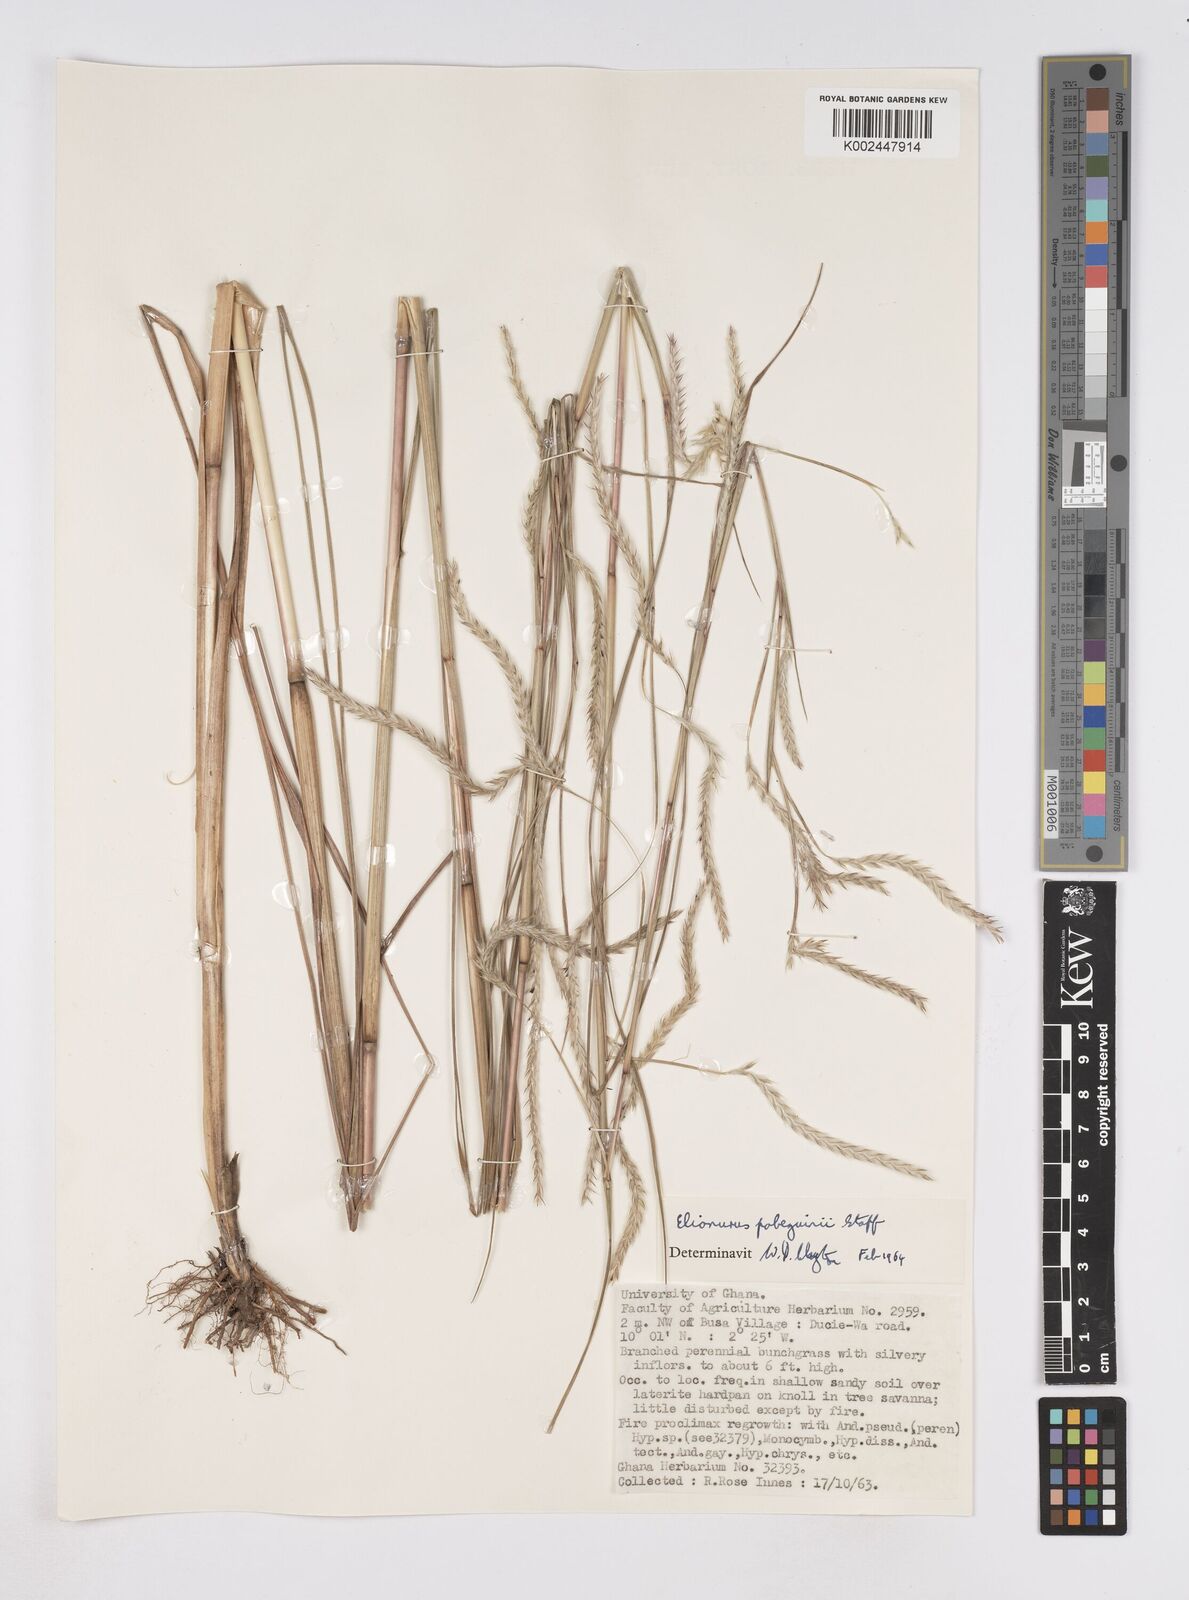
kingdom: Plantae
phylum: Tracheophyta
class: Liliopsida
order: Poales
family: Poaceae
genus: Elionurus
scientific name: Elionurus
